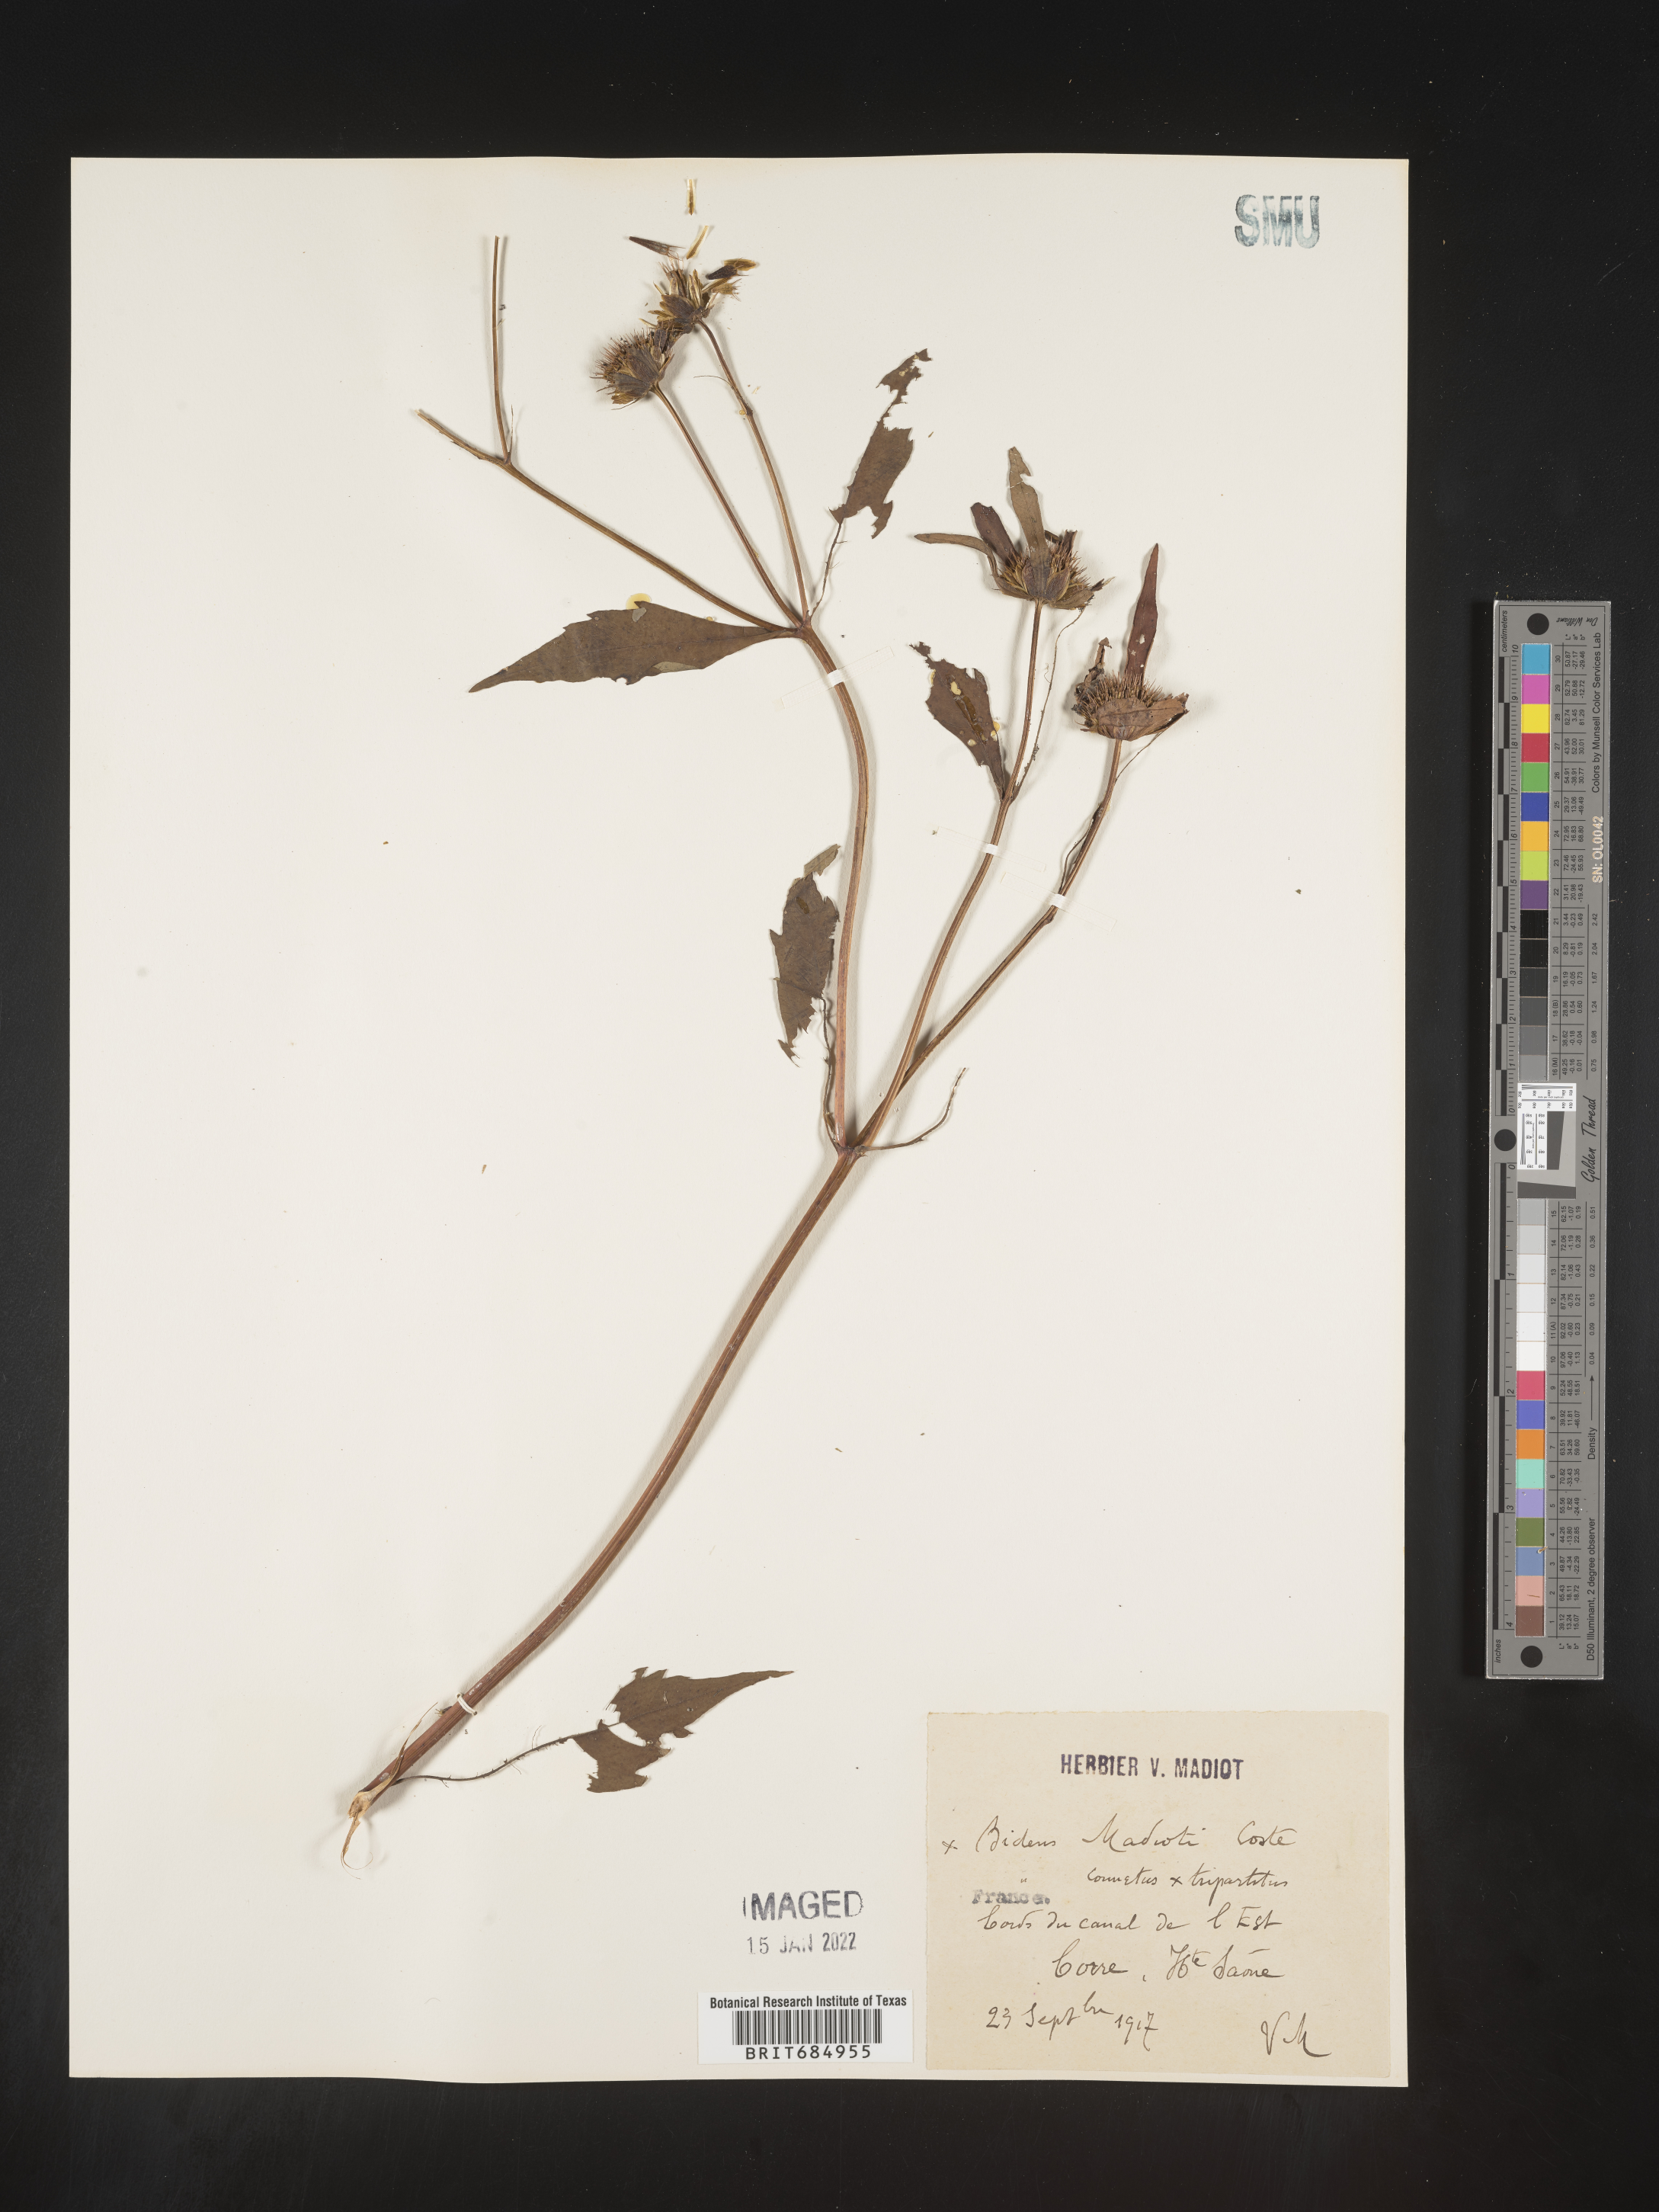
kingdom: Plantae
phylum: Tracheophyta
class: Magnoliopsida
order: Asterales
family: Asteraceae
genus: Bidens
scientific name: Bidens
